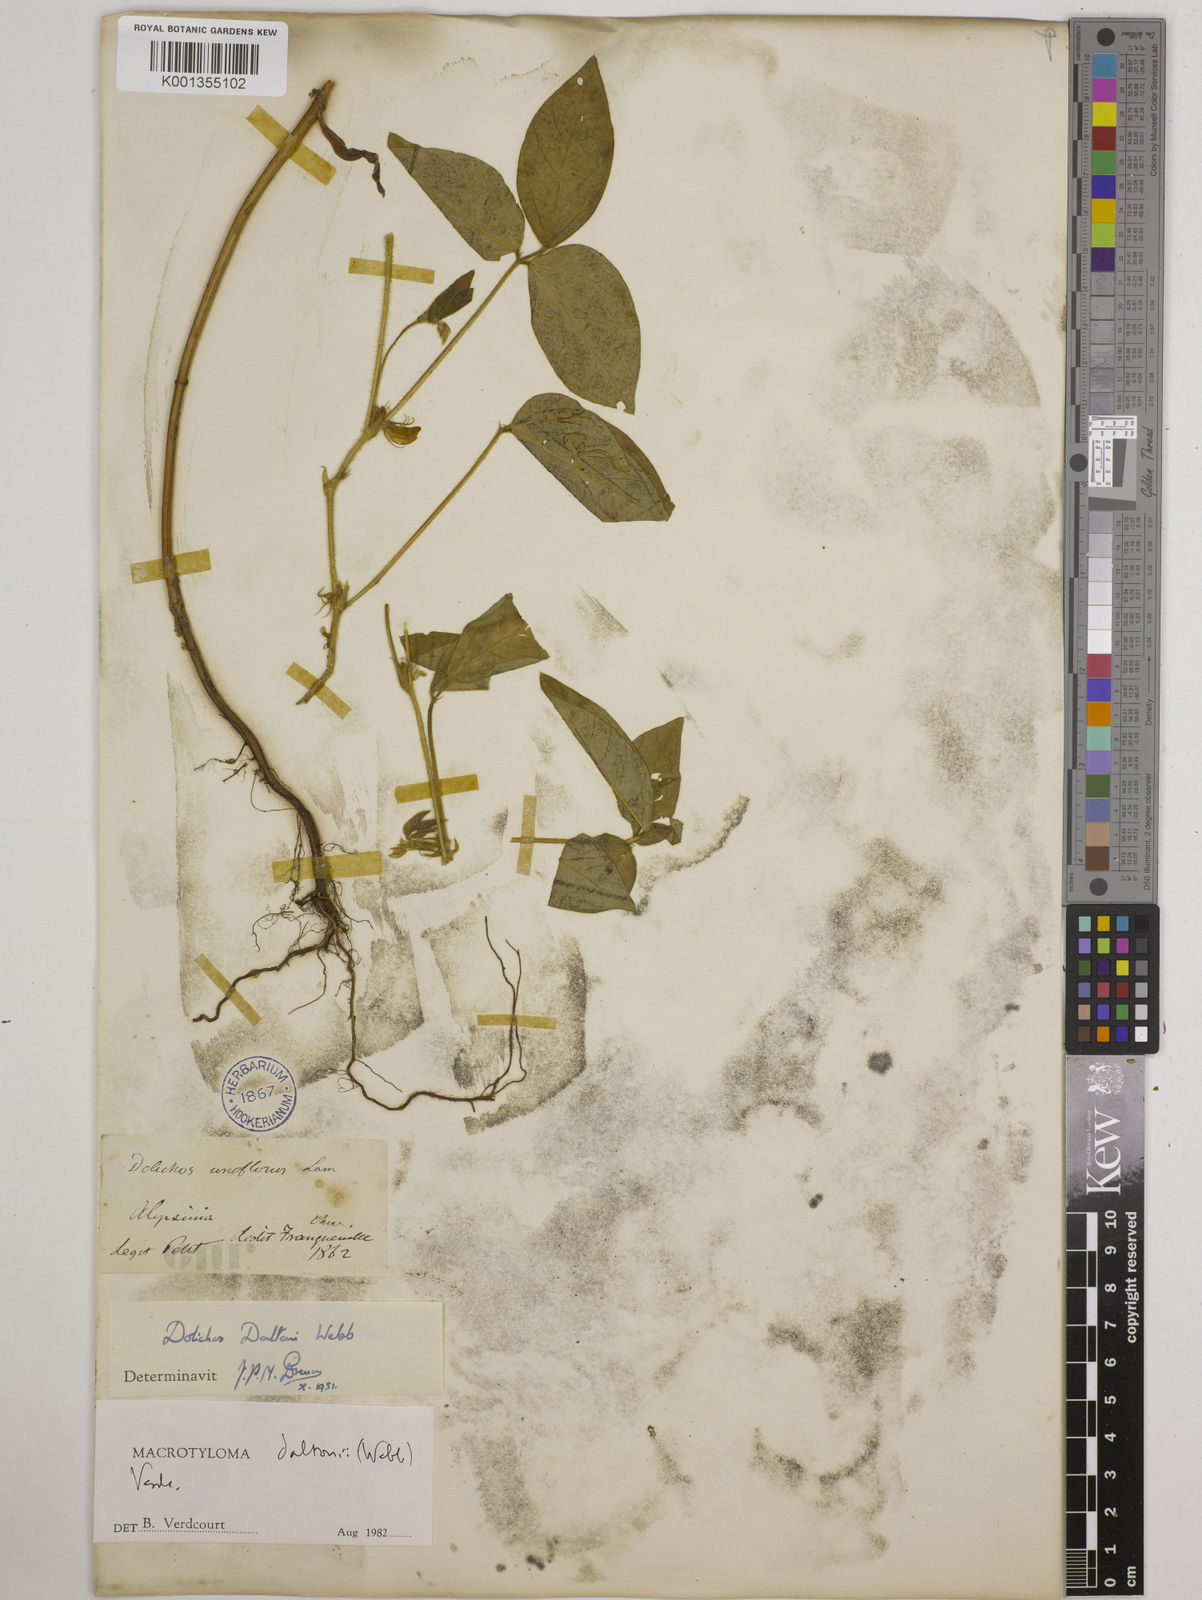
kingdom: Plantae
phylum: Tracheophyta
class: Magnoliopsida
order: Fabales
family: Fabaceae
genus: Macrotyloma
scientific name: Macrotyloma daltonii
